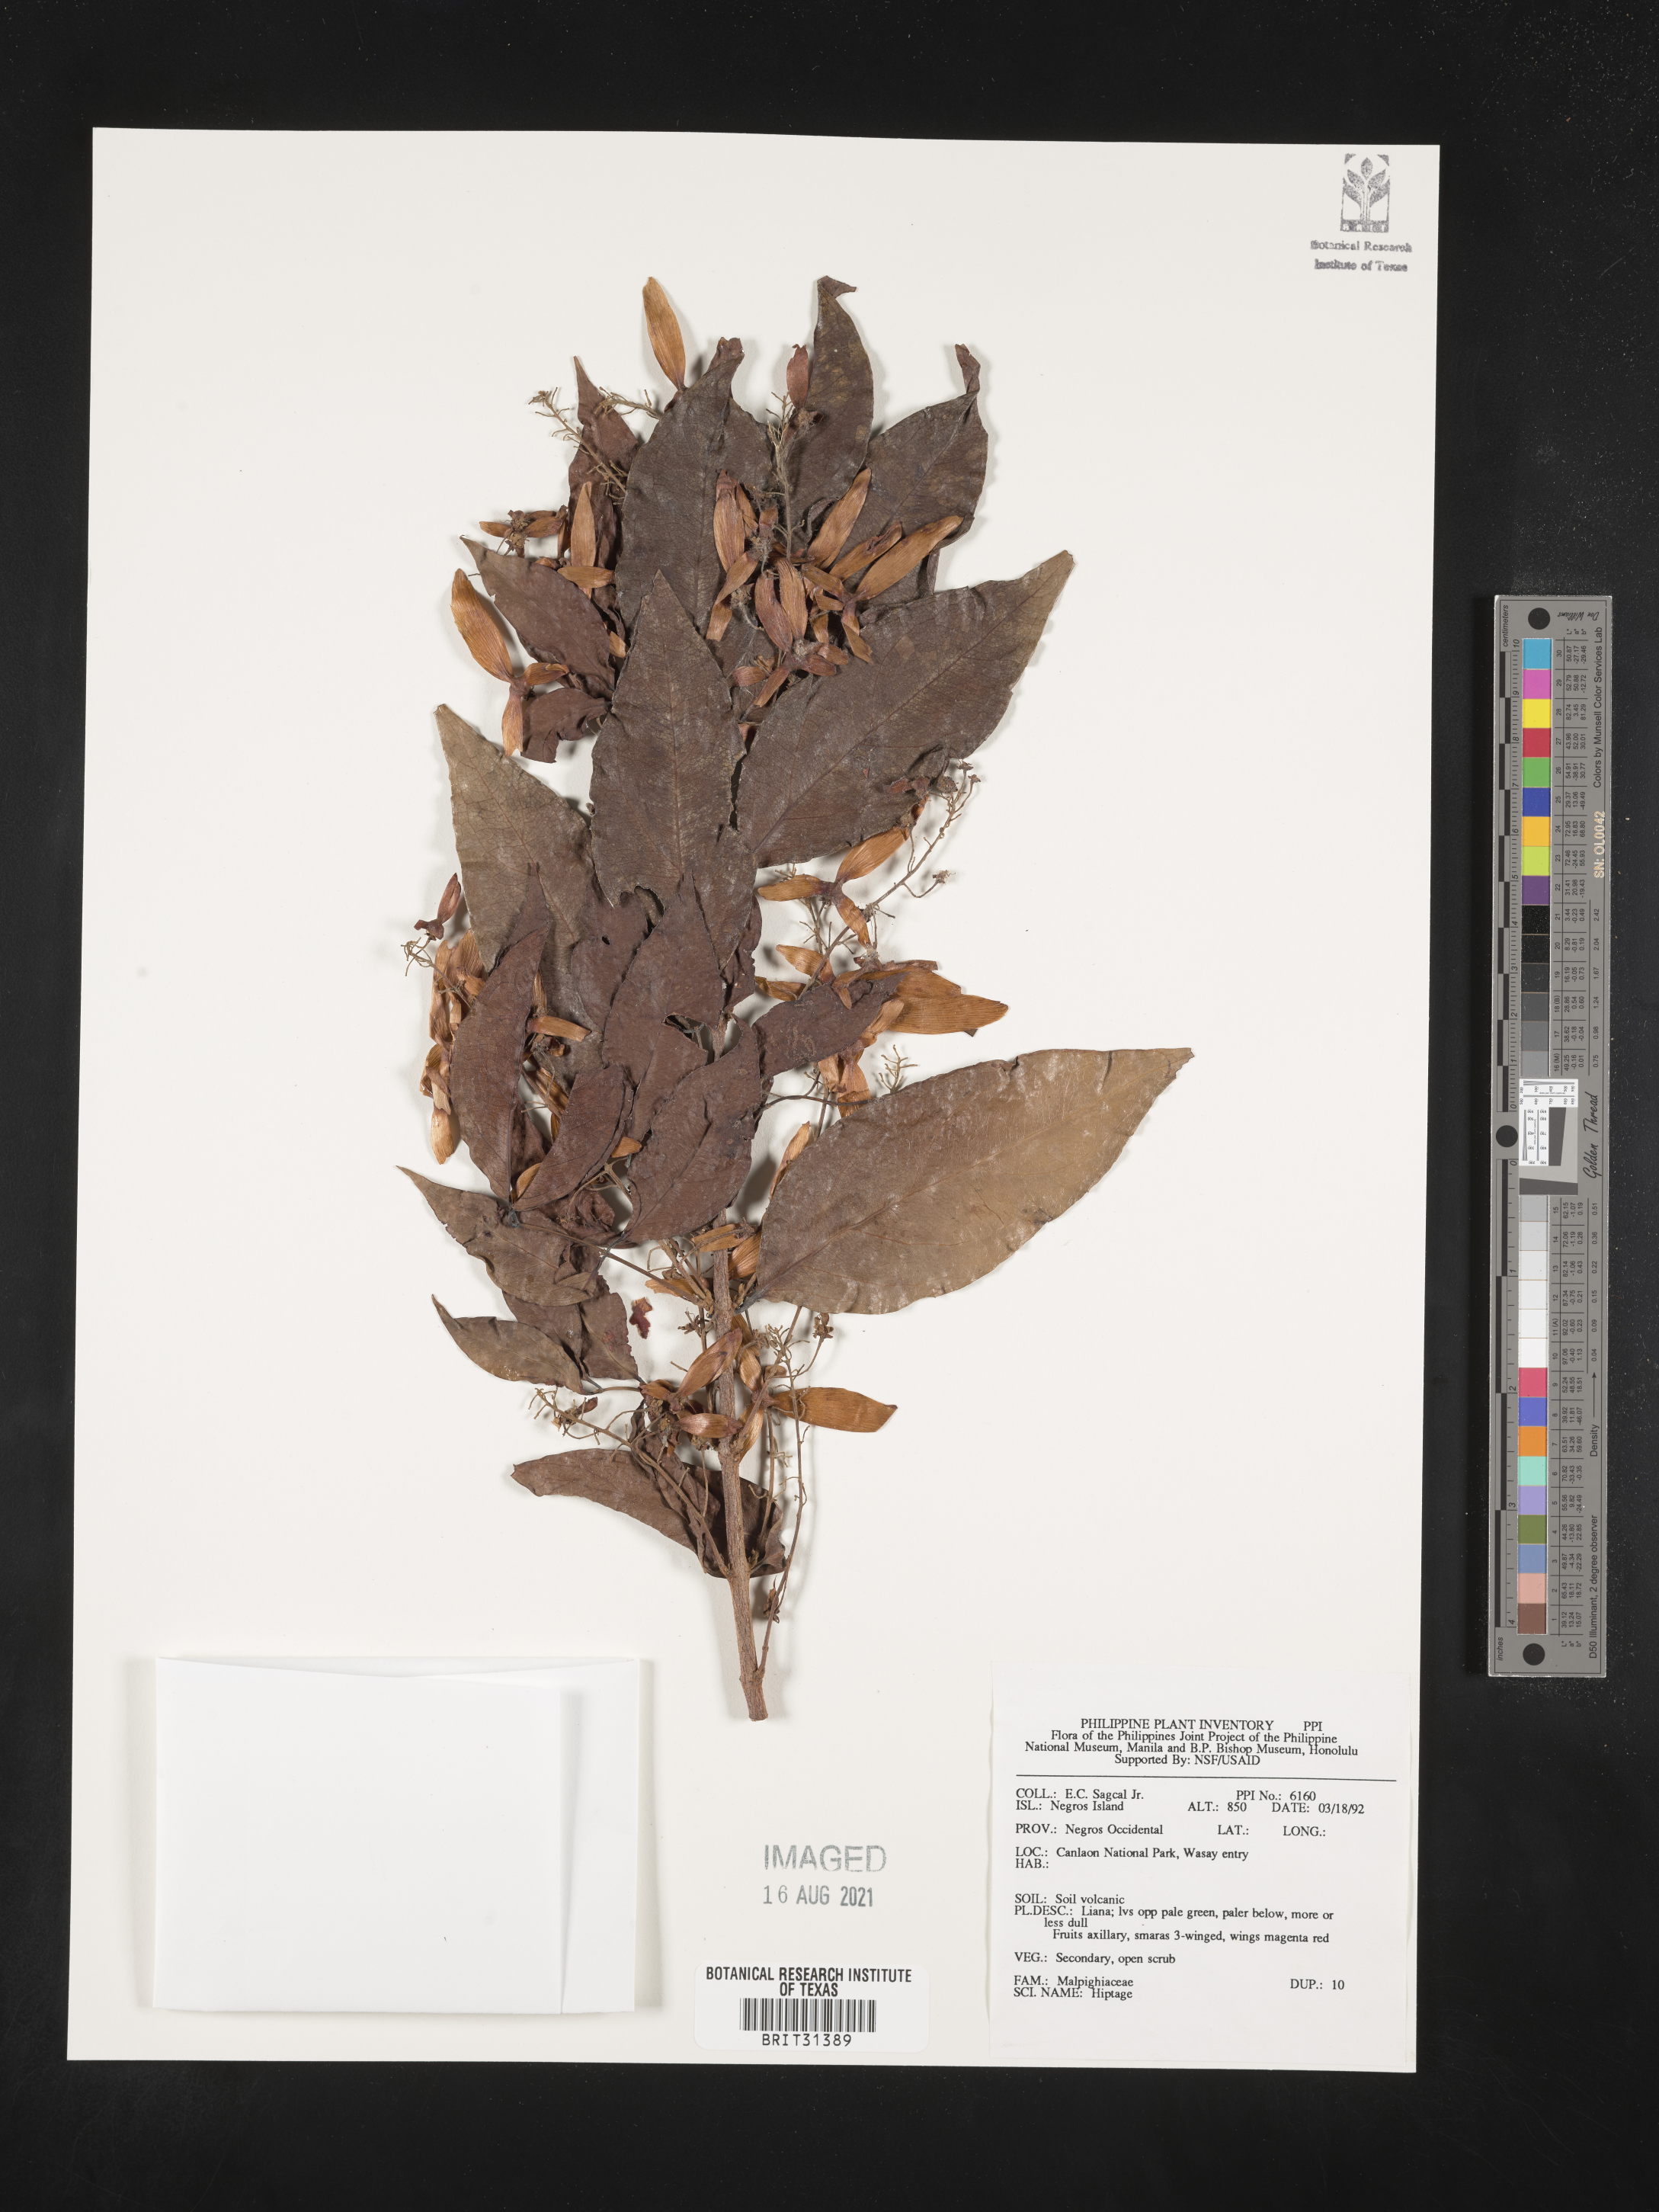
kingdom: Plantae
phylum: Tracheophyta
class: Magnoliopsida
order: Malpighiales
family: Malpighiaceae
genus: Hiptage
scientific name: Hiptage
